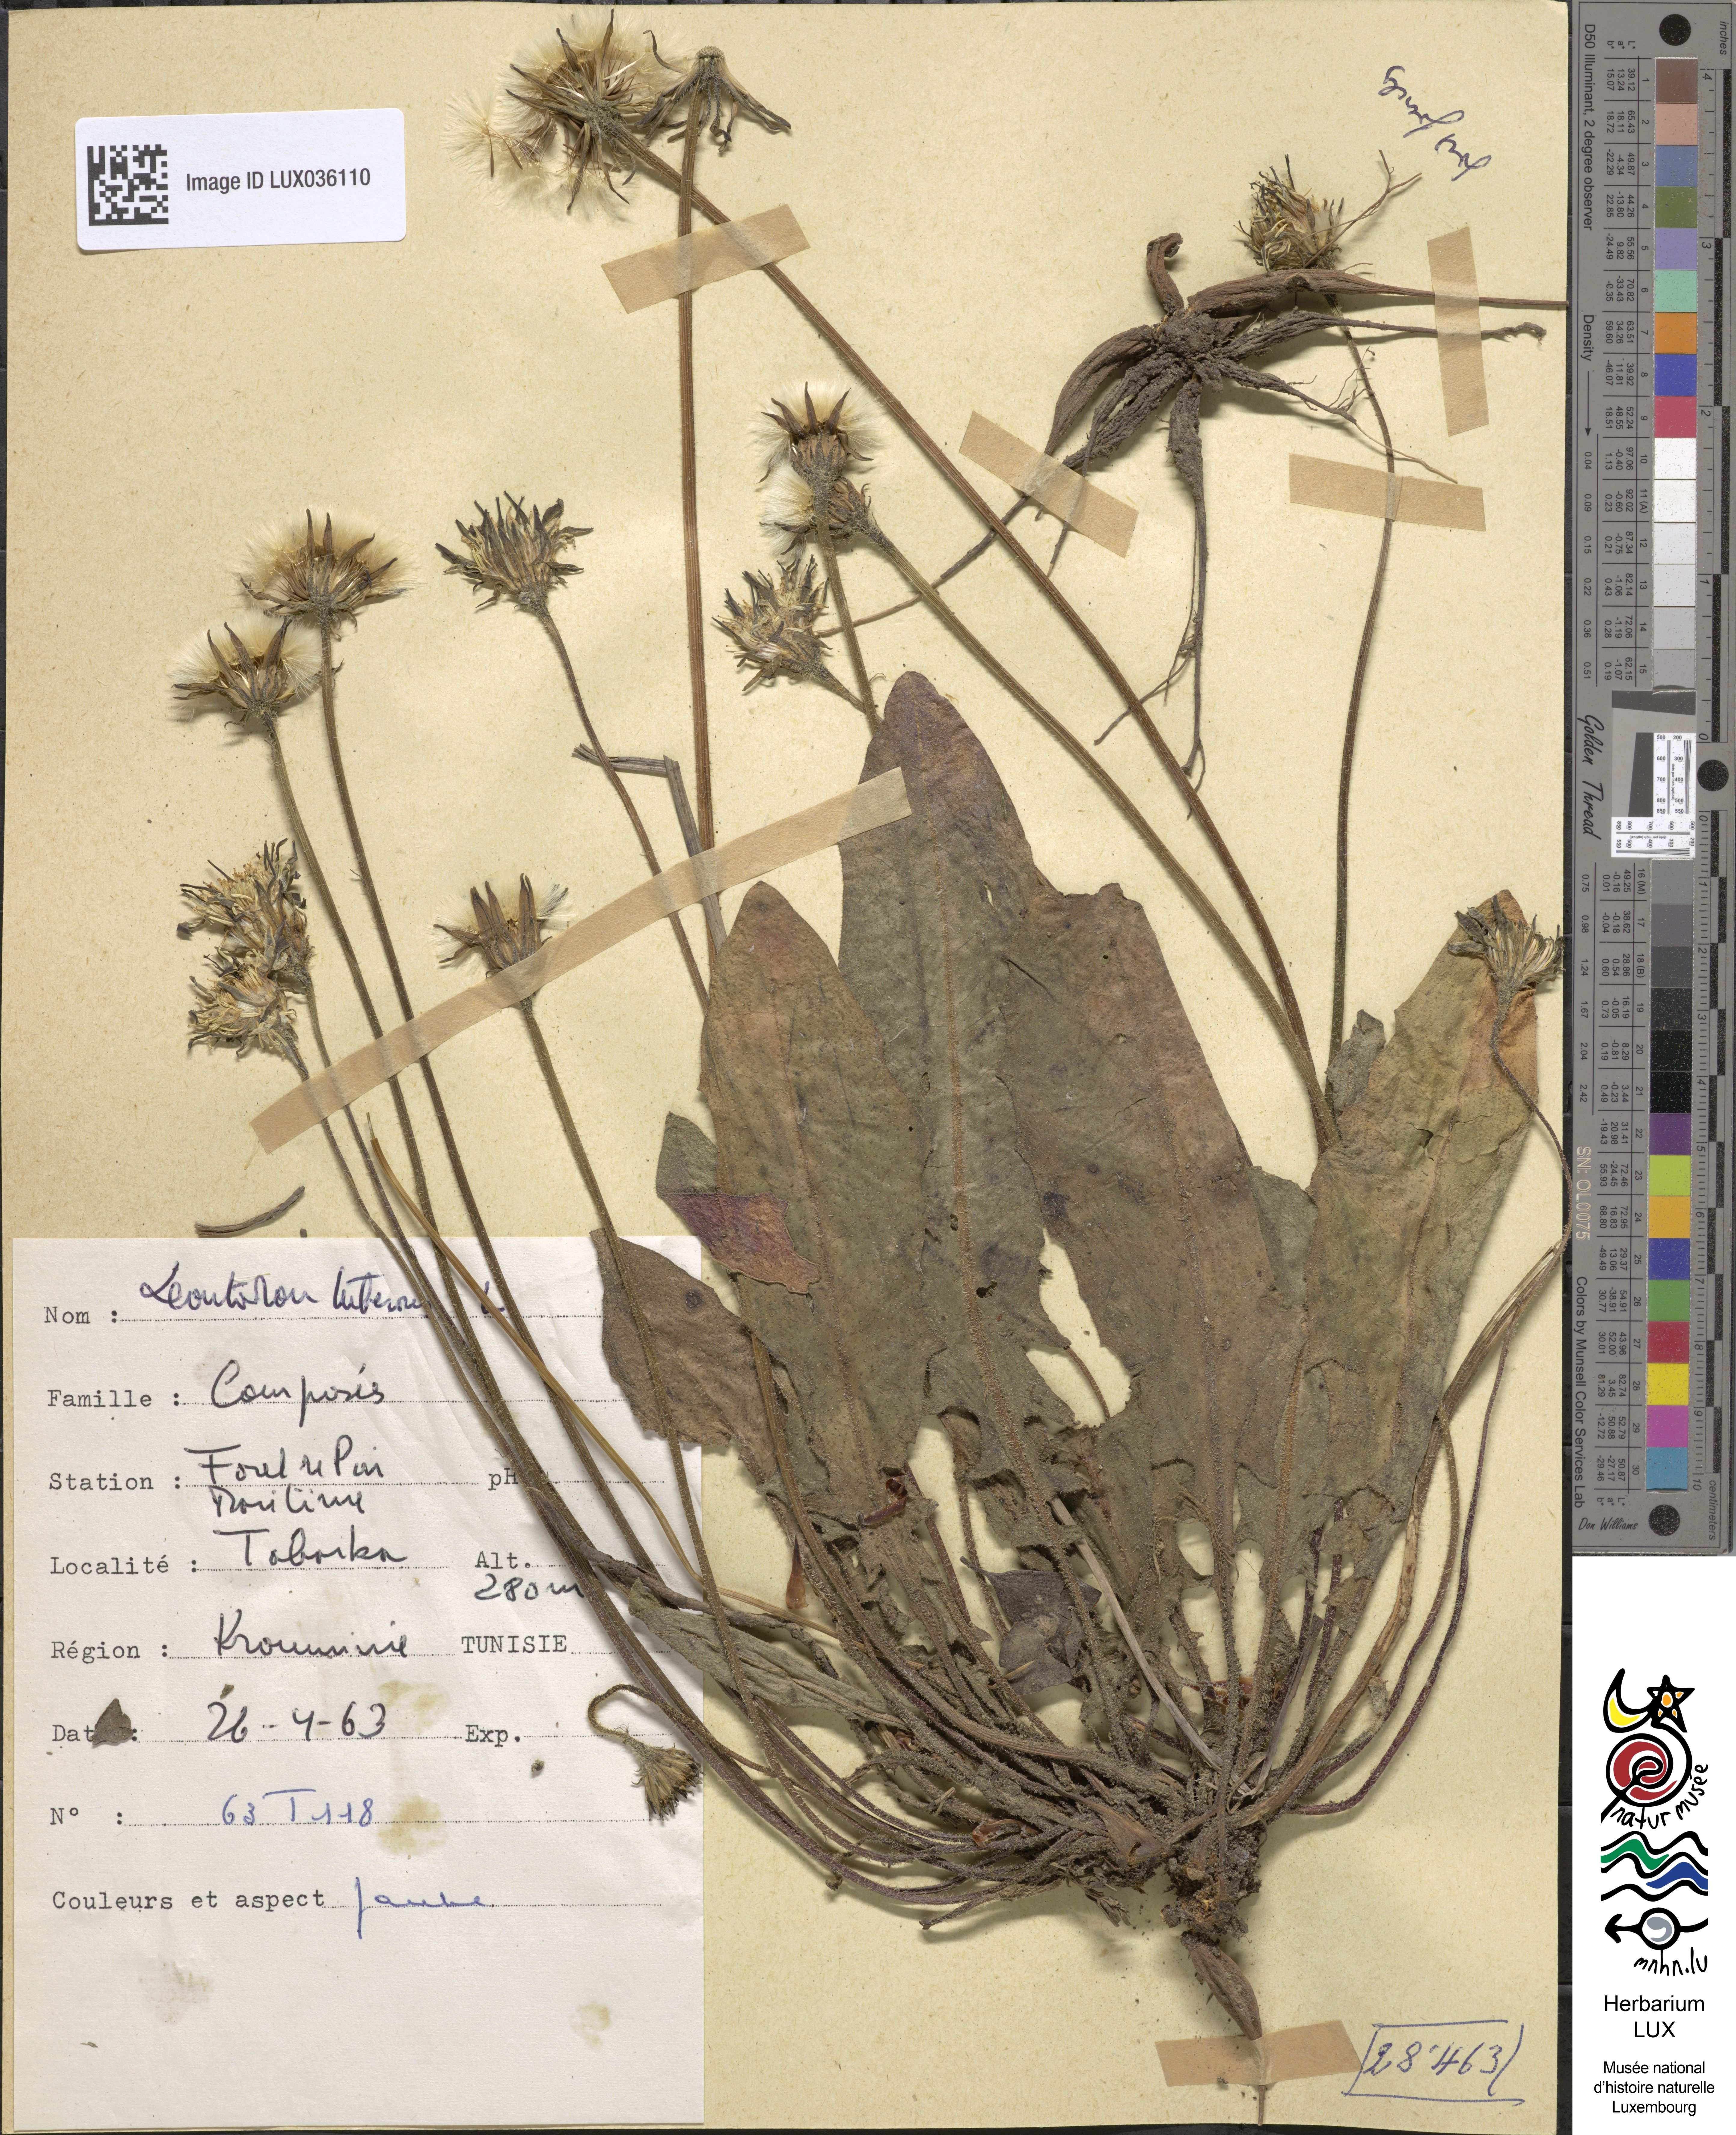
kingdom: Plantae
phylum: Tracheophyta
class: Magnoliopsida
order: Asterales
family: Asteraceae
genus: Thrincia
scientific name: Thrincia tuberosa
